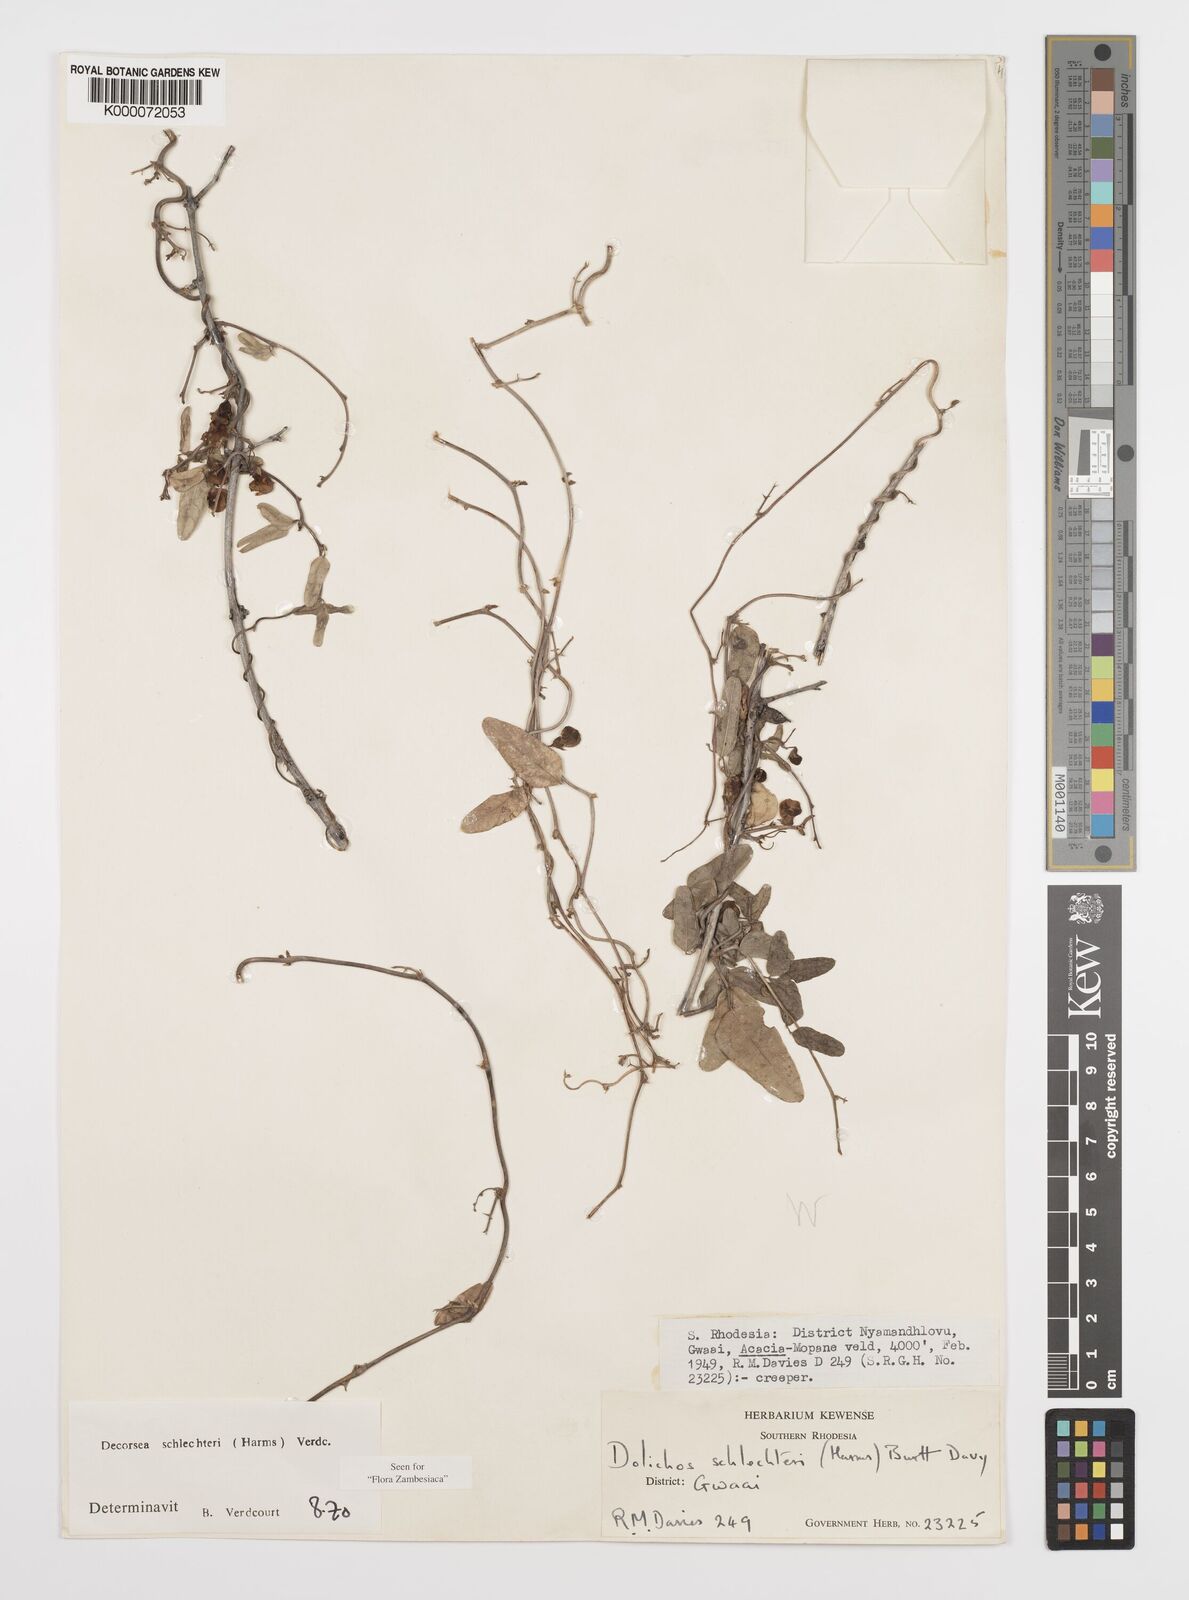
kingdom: Plantae
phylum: Tracheophyta
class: Magnoliopsida
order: Fabales
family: Fabaceae
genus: Decorsea
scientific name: Decorsea schlechteri
